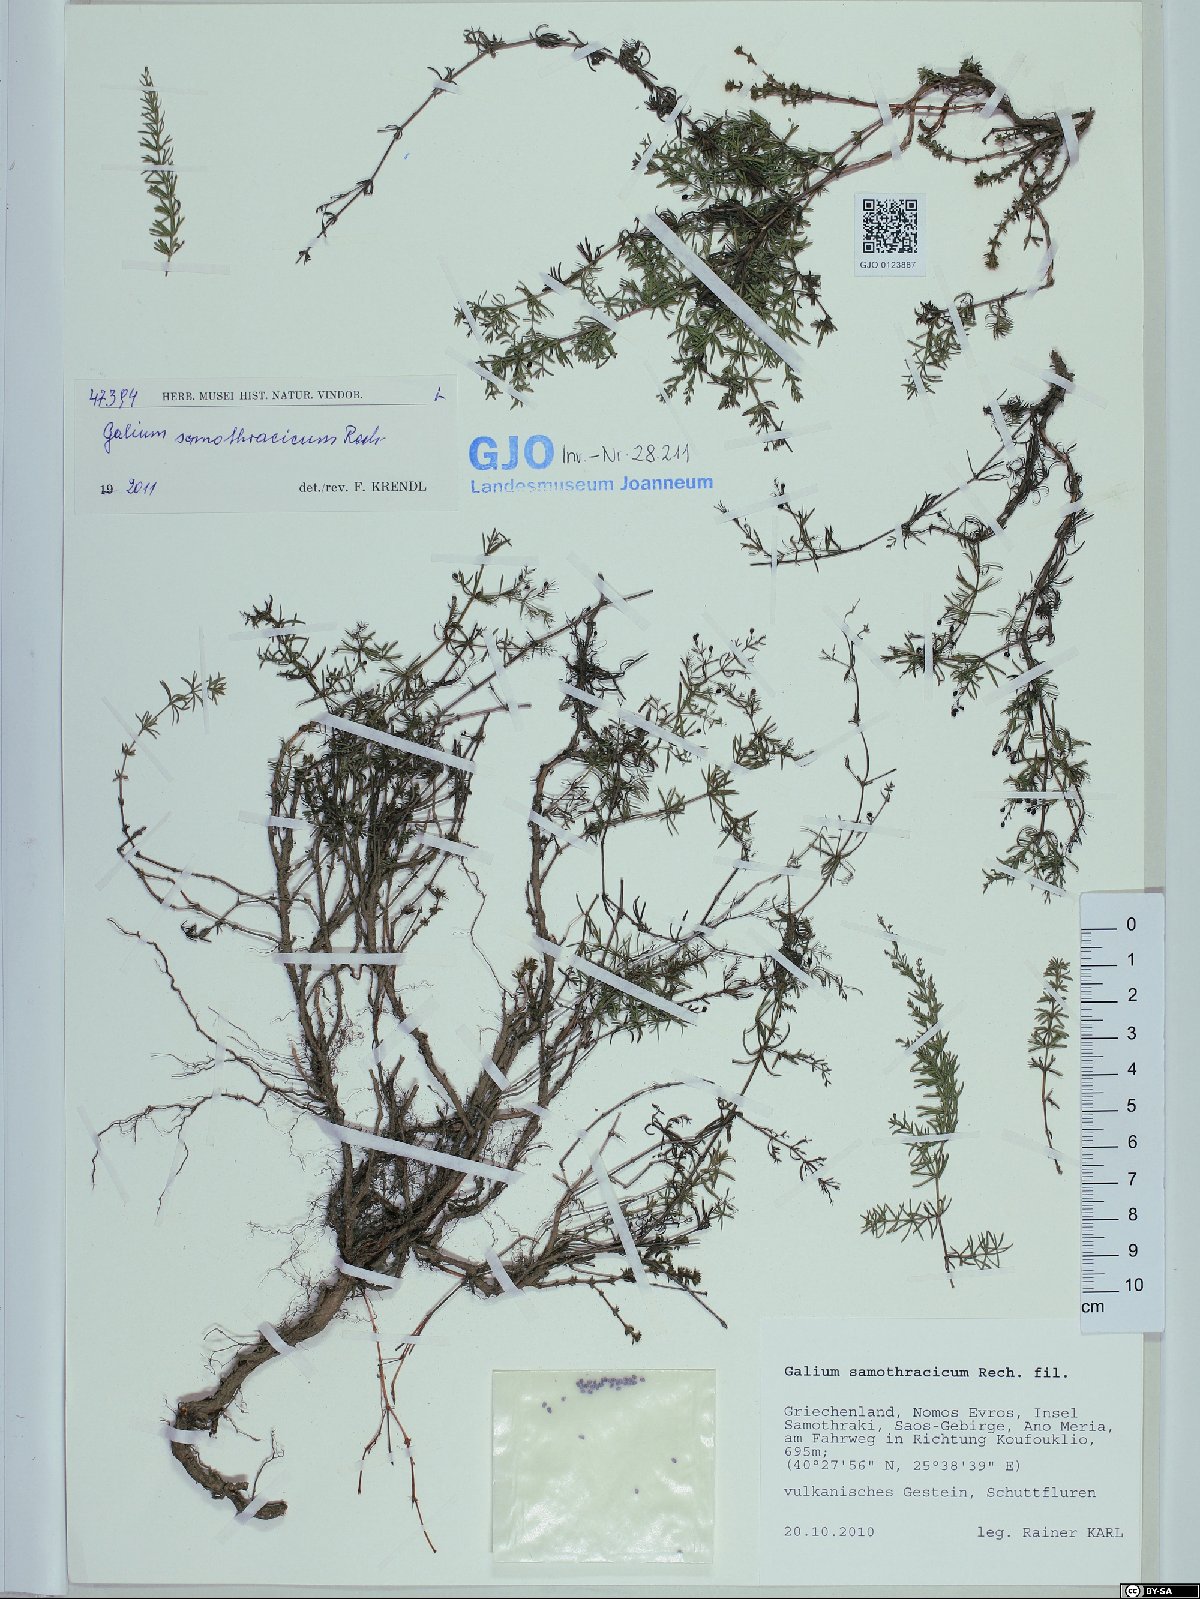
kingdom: Plantae
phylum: Tracheophyta
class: Magnoliopsida
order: Gentianales
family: Rubiaceae
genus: Galium
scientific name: Galium samothracicum
